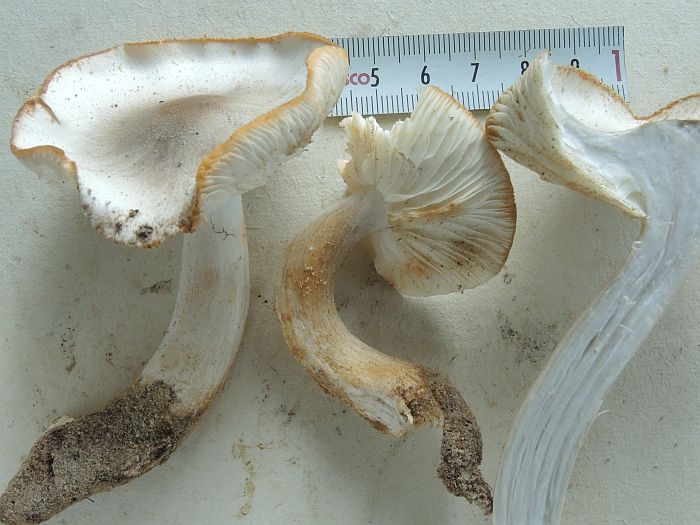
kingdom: Fungi
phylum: Basidiomycota
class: Agaricomycetes
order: Agaricales
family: Tricholomataceae
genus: Tricholoma
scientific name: Tricholoma saponaceum
